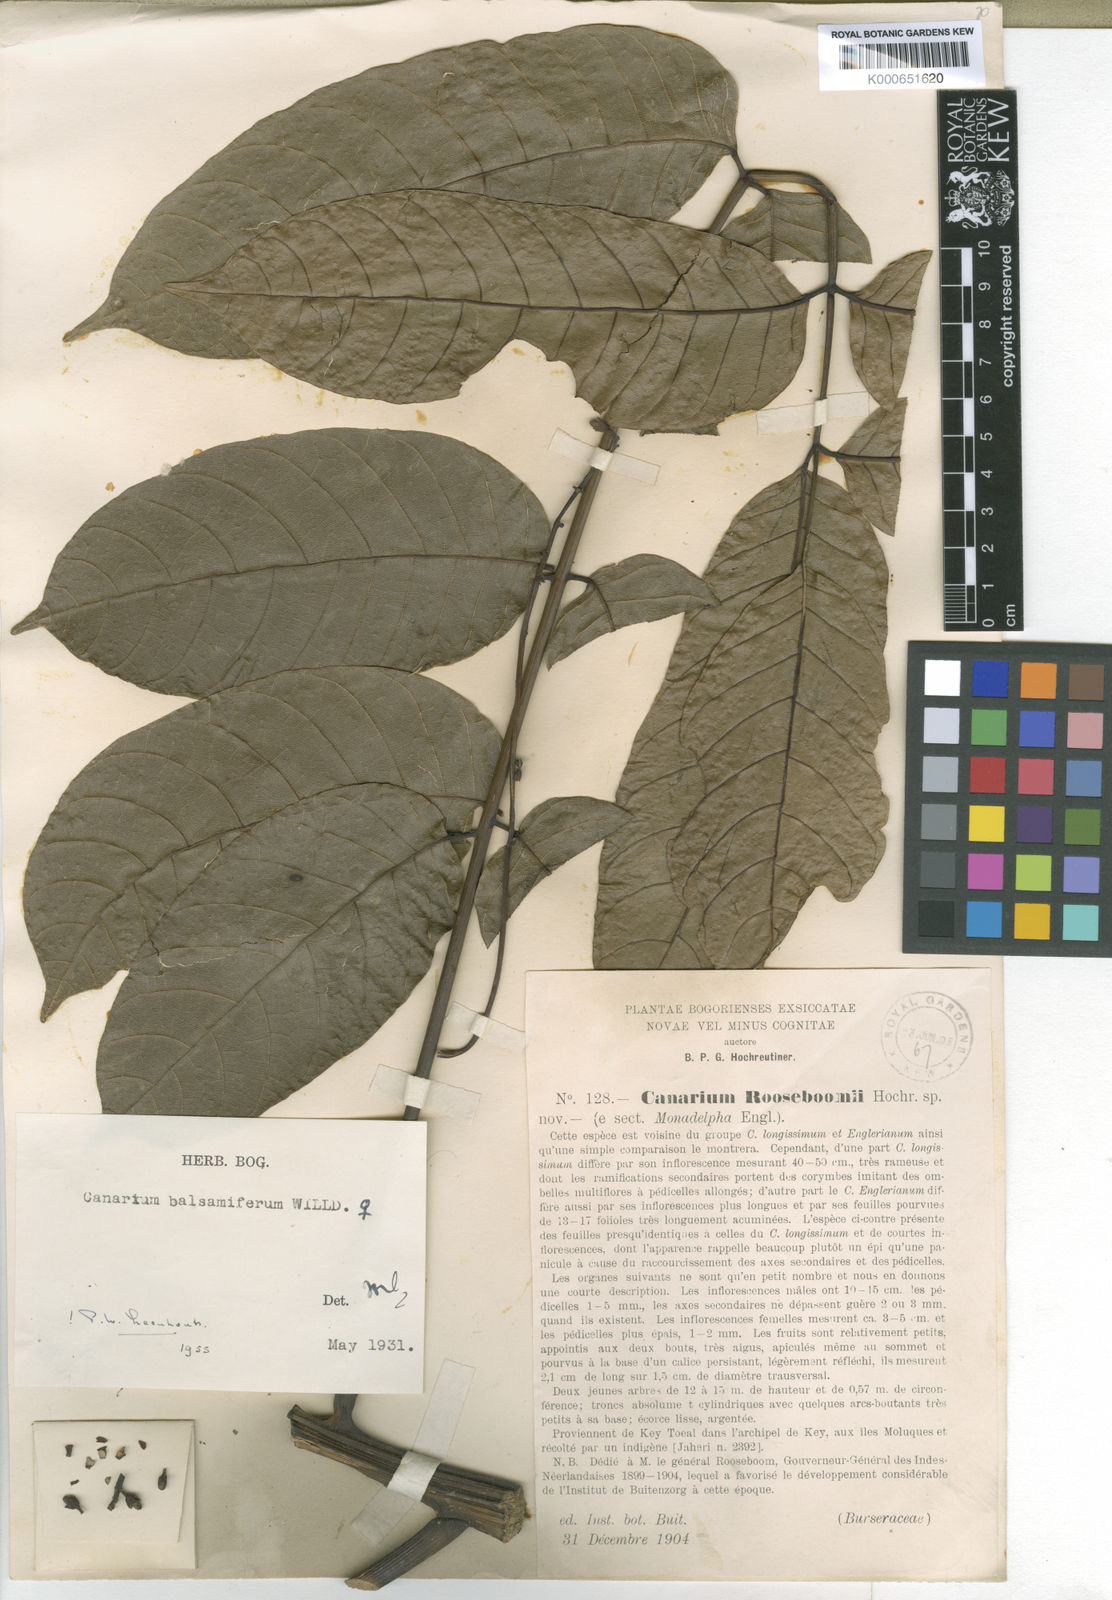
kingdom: Plantae
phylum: Tracheophyta
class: Magnoliopsida
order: Sapindales
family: Burseraceae
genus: Canarium
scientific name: Canarium balsamiferum
